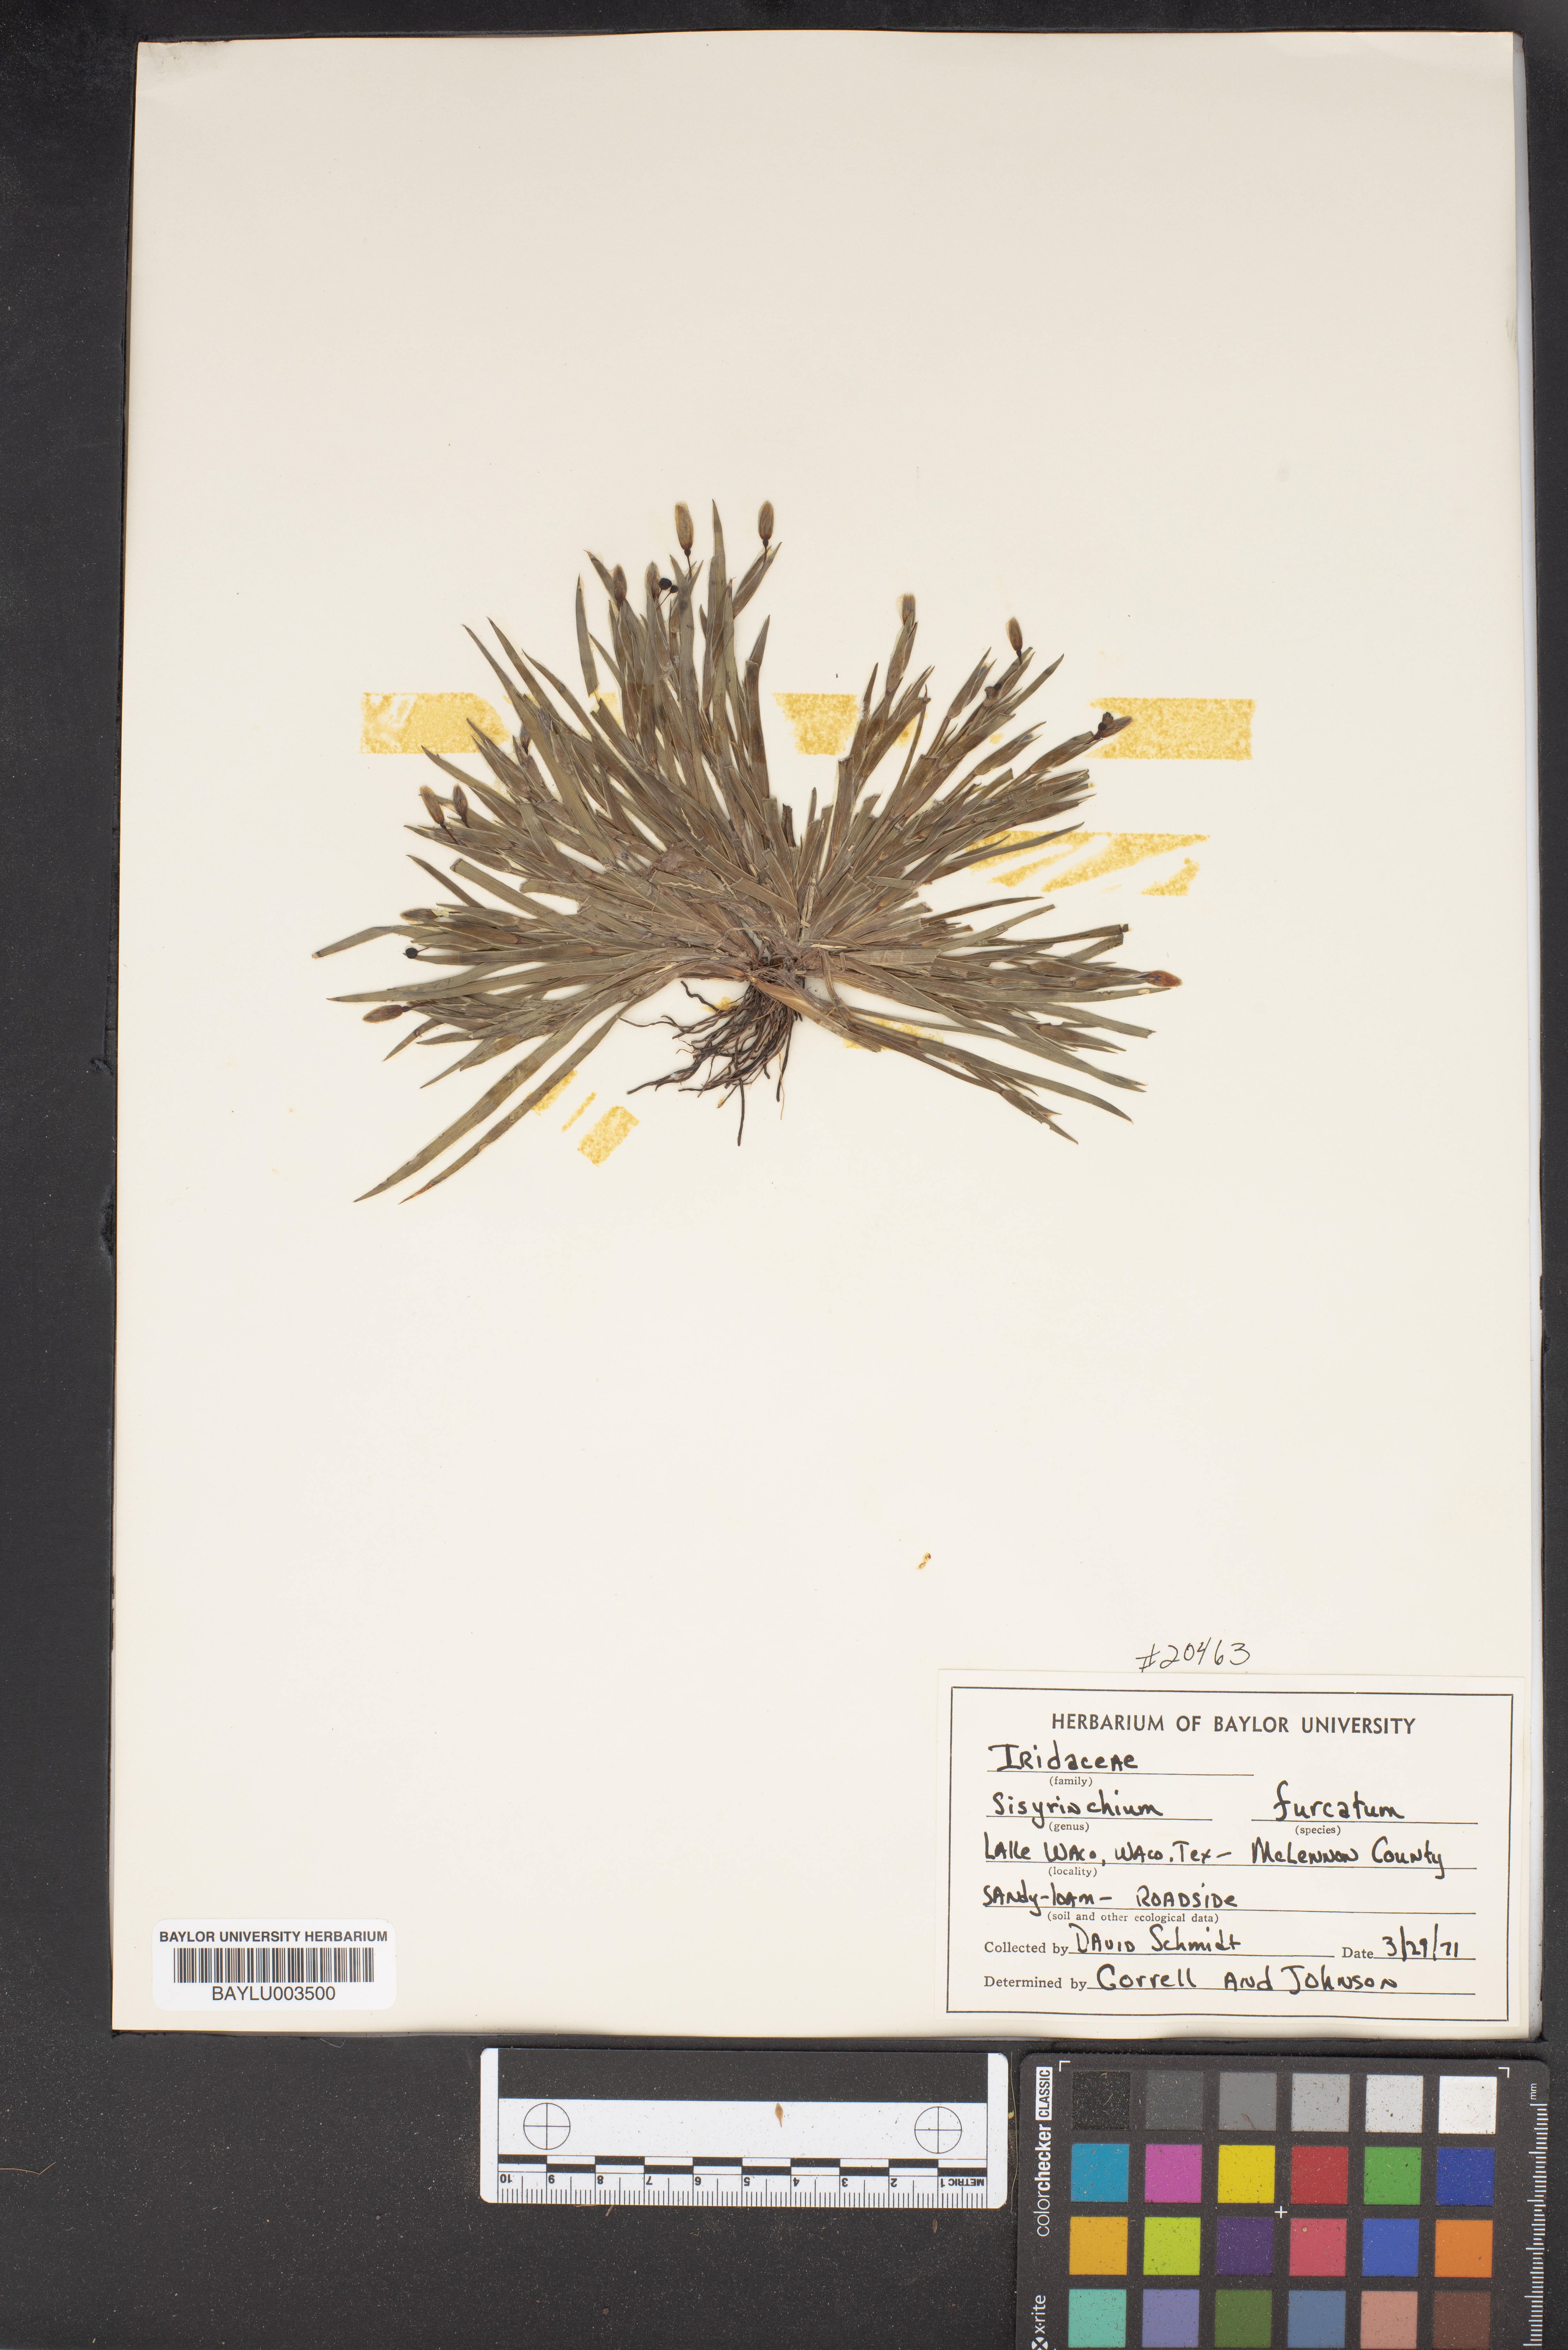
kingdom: Plantae
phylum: Tracheophyta
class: Liliopsida
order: Asparagales
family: Iridaceae
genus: Sisyrinchium
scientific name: Sisyrinchium fuscatum
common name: Coastal plain blue-eyed-grass
